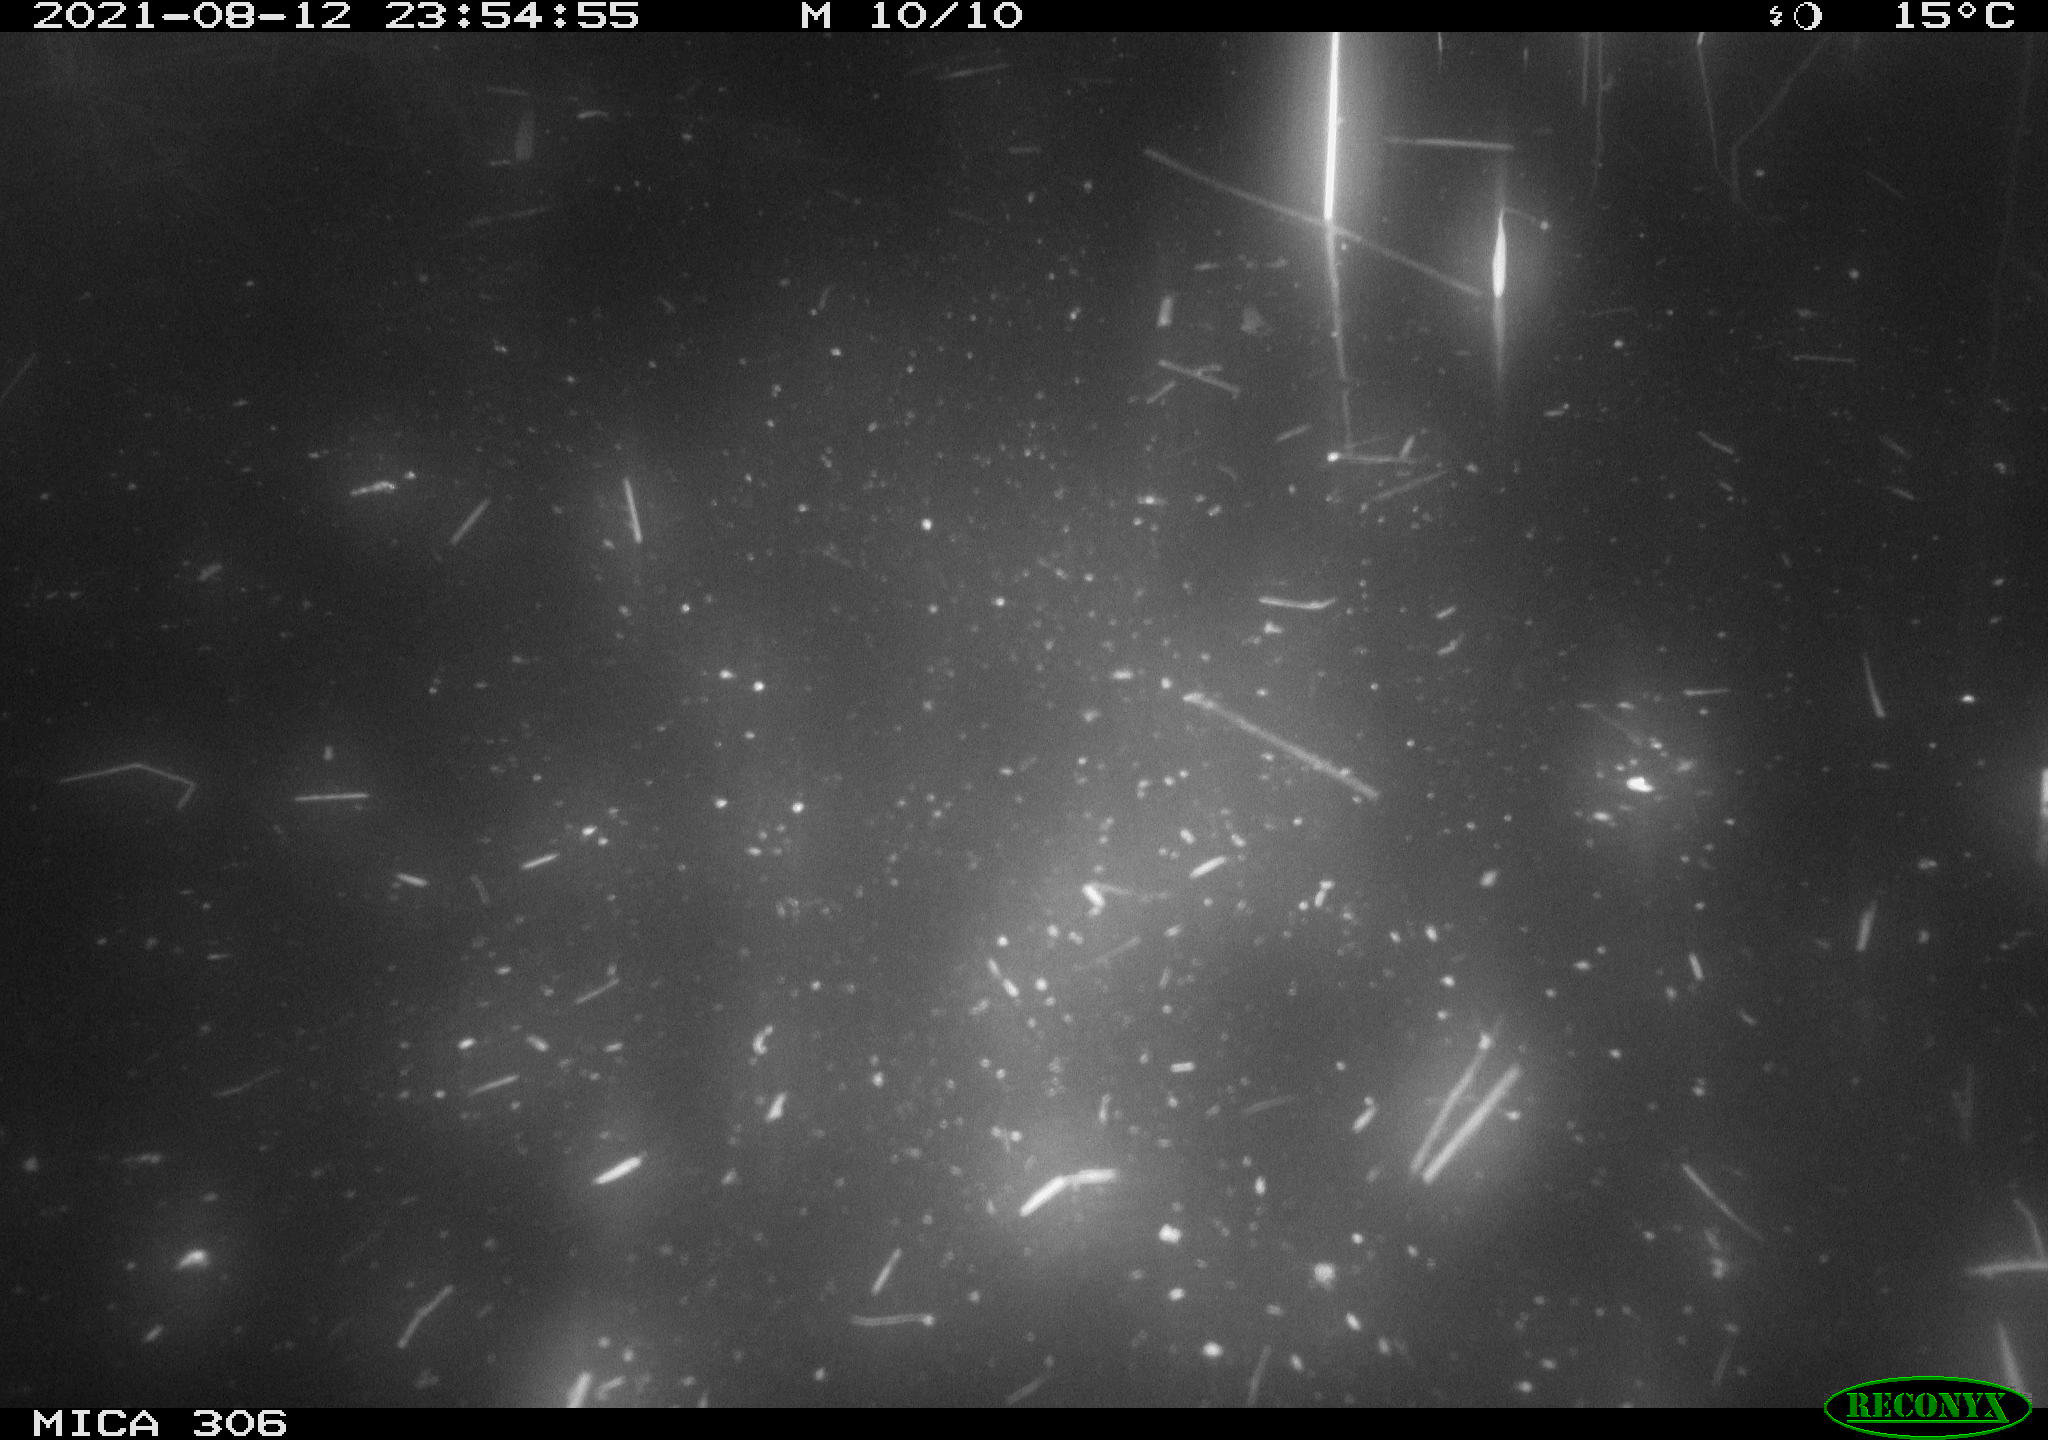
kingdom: Animalia
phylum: Chordata
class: Aves
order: Anseriformes
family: Anatidae
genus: Anas
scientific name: Anas platyrhynchos
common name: Mallard
